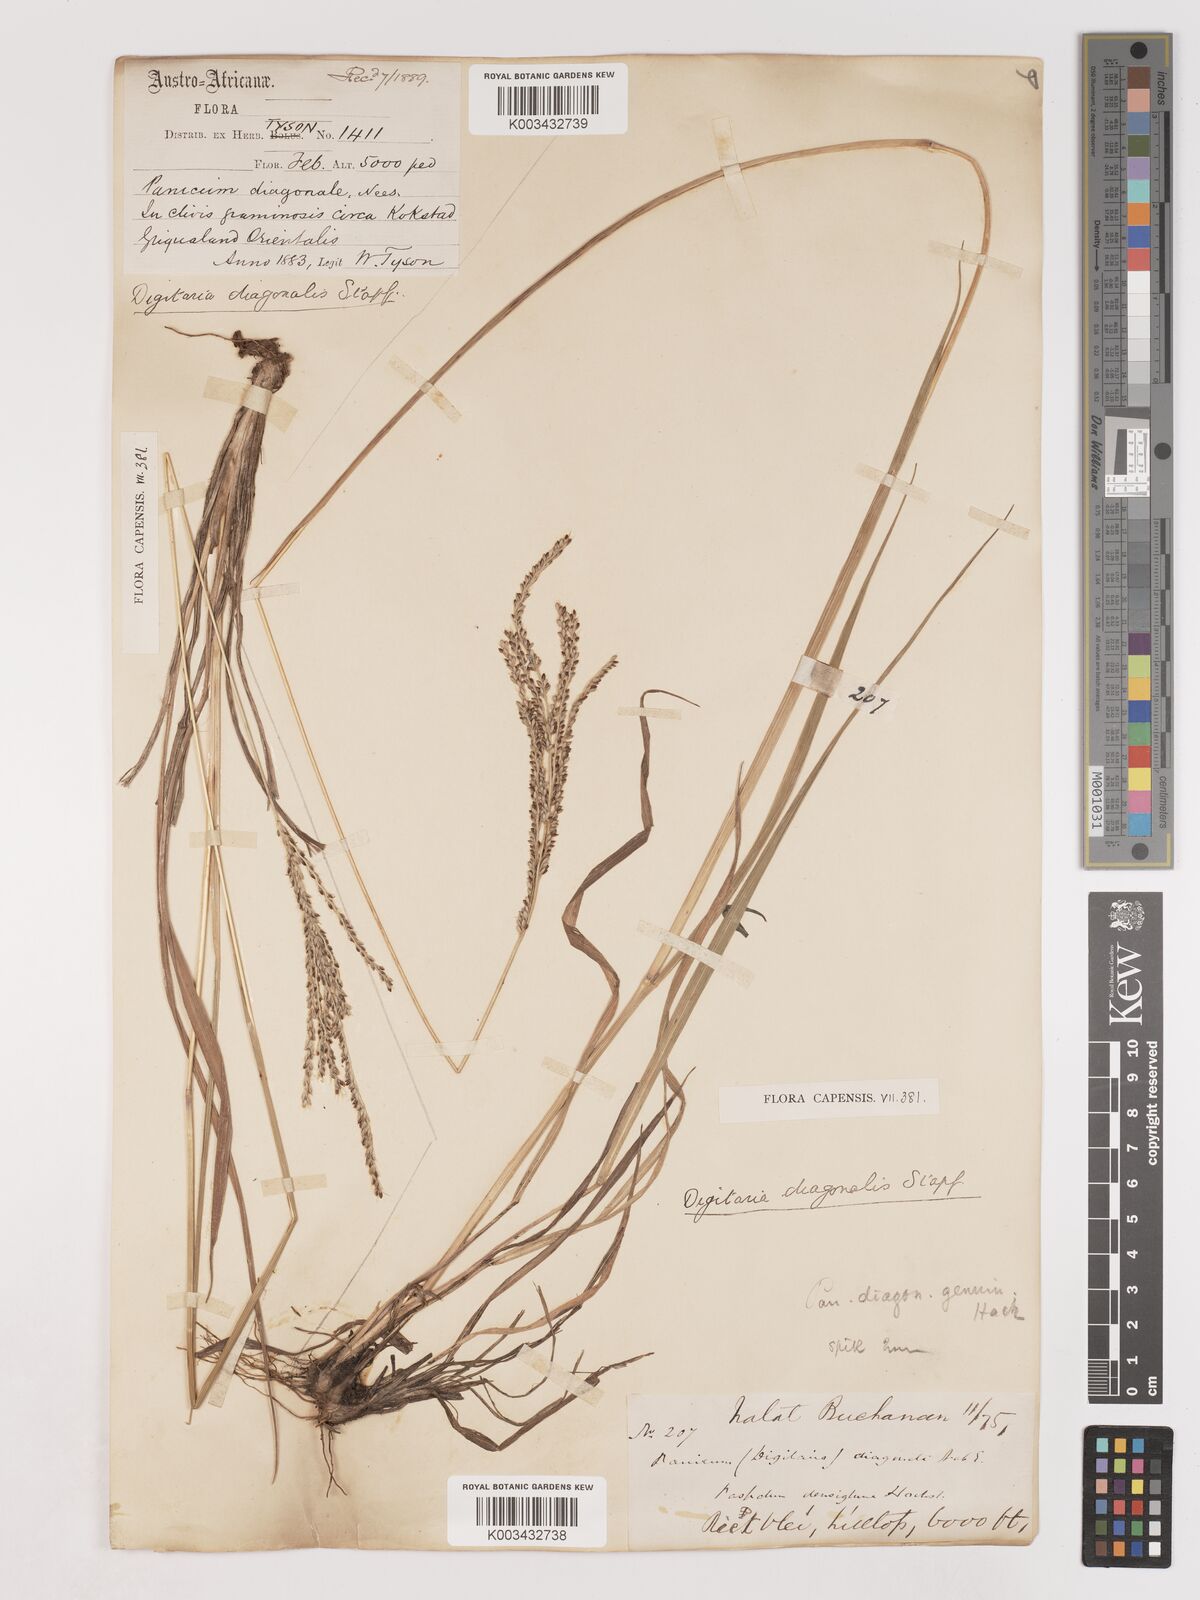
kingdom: Plantae
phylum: Tracheophyta
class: Liliopsida
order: Poales
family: Poaceae
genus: Digitaria
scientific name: Digitaria diagonalis
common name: Brown-seed finger grass
